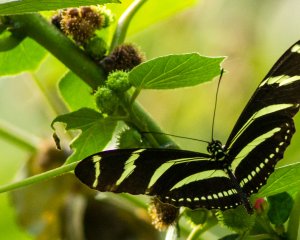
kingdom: Animalia
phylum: Arthropoda
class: Insecta
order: Lepidoptera
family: Nymphalidae
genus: Heliconius
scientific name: Heliconius charithonia
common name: Zebra Longwing
